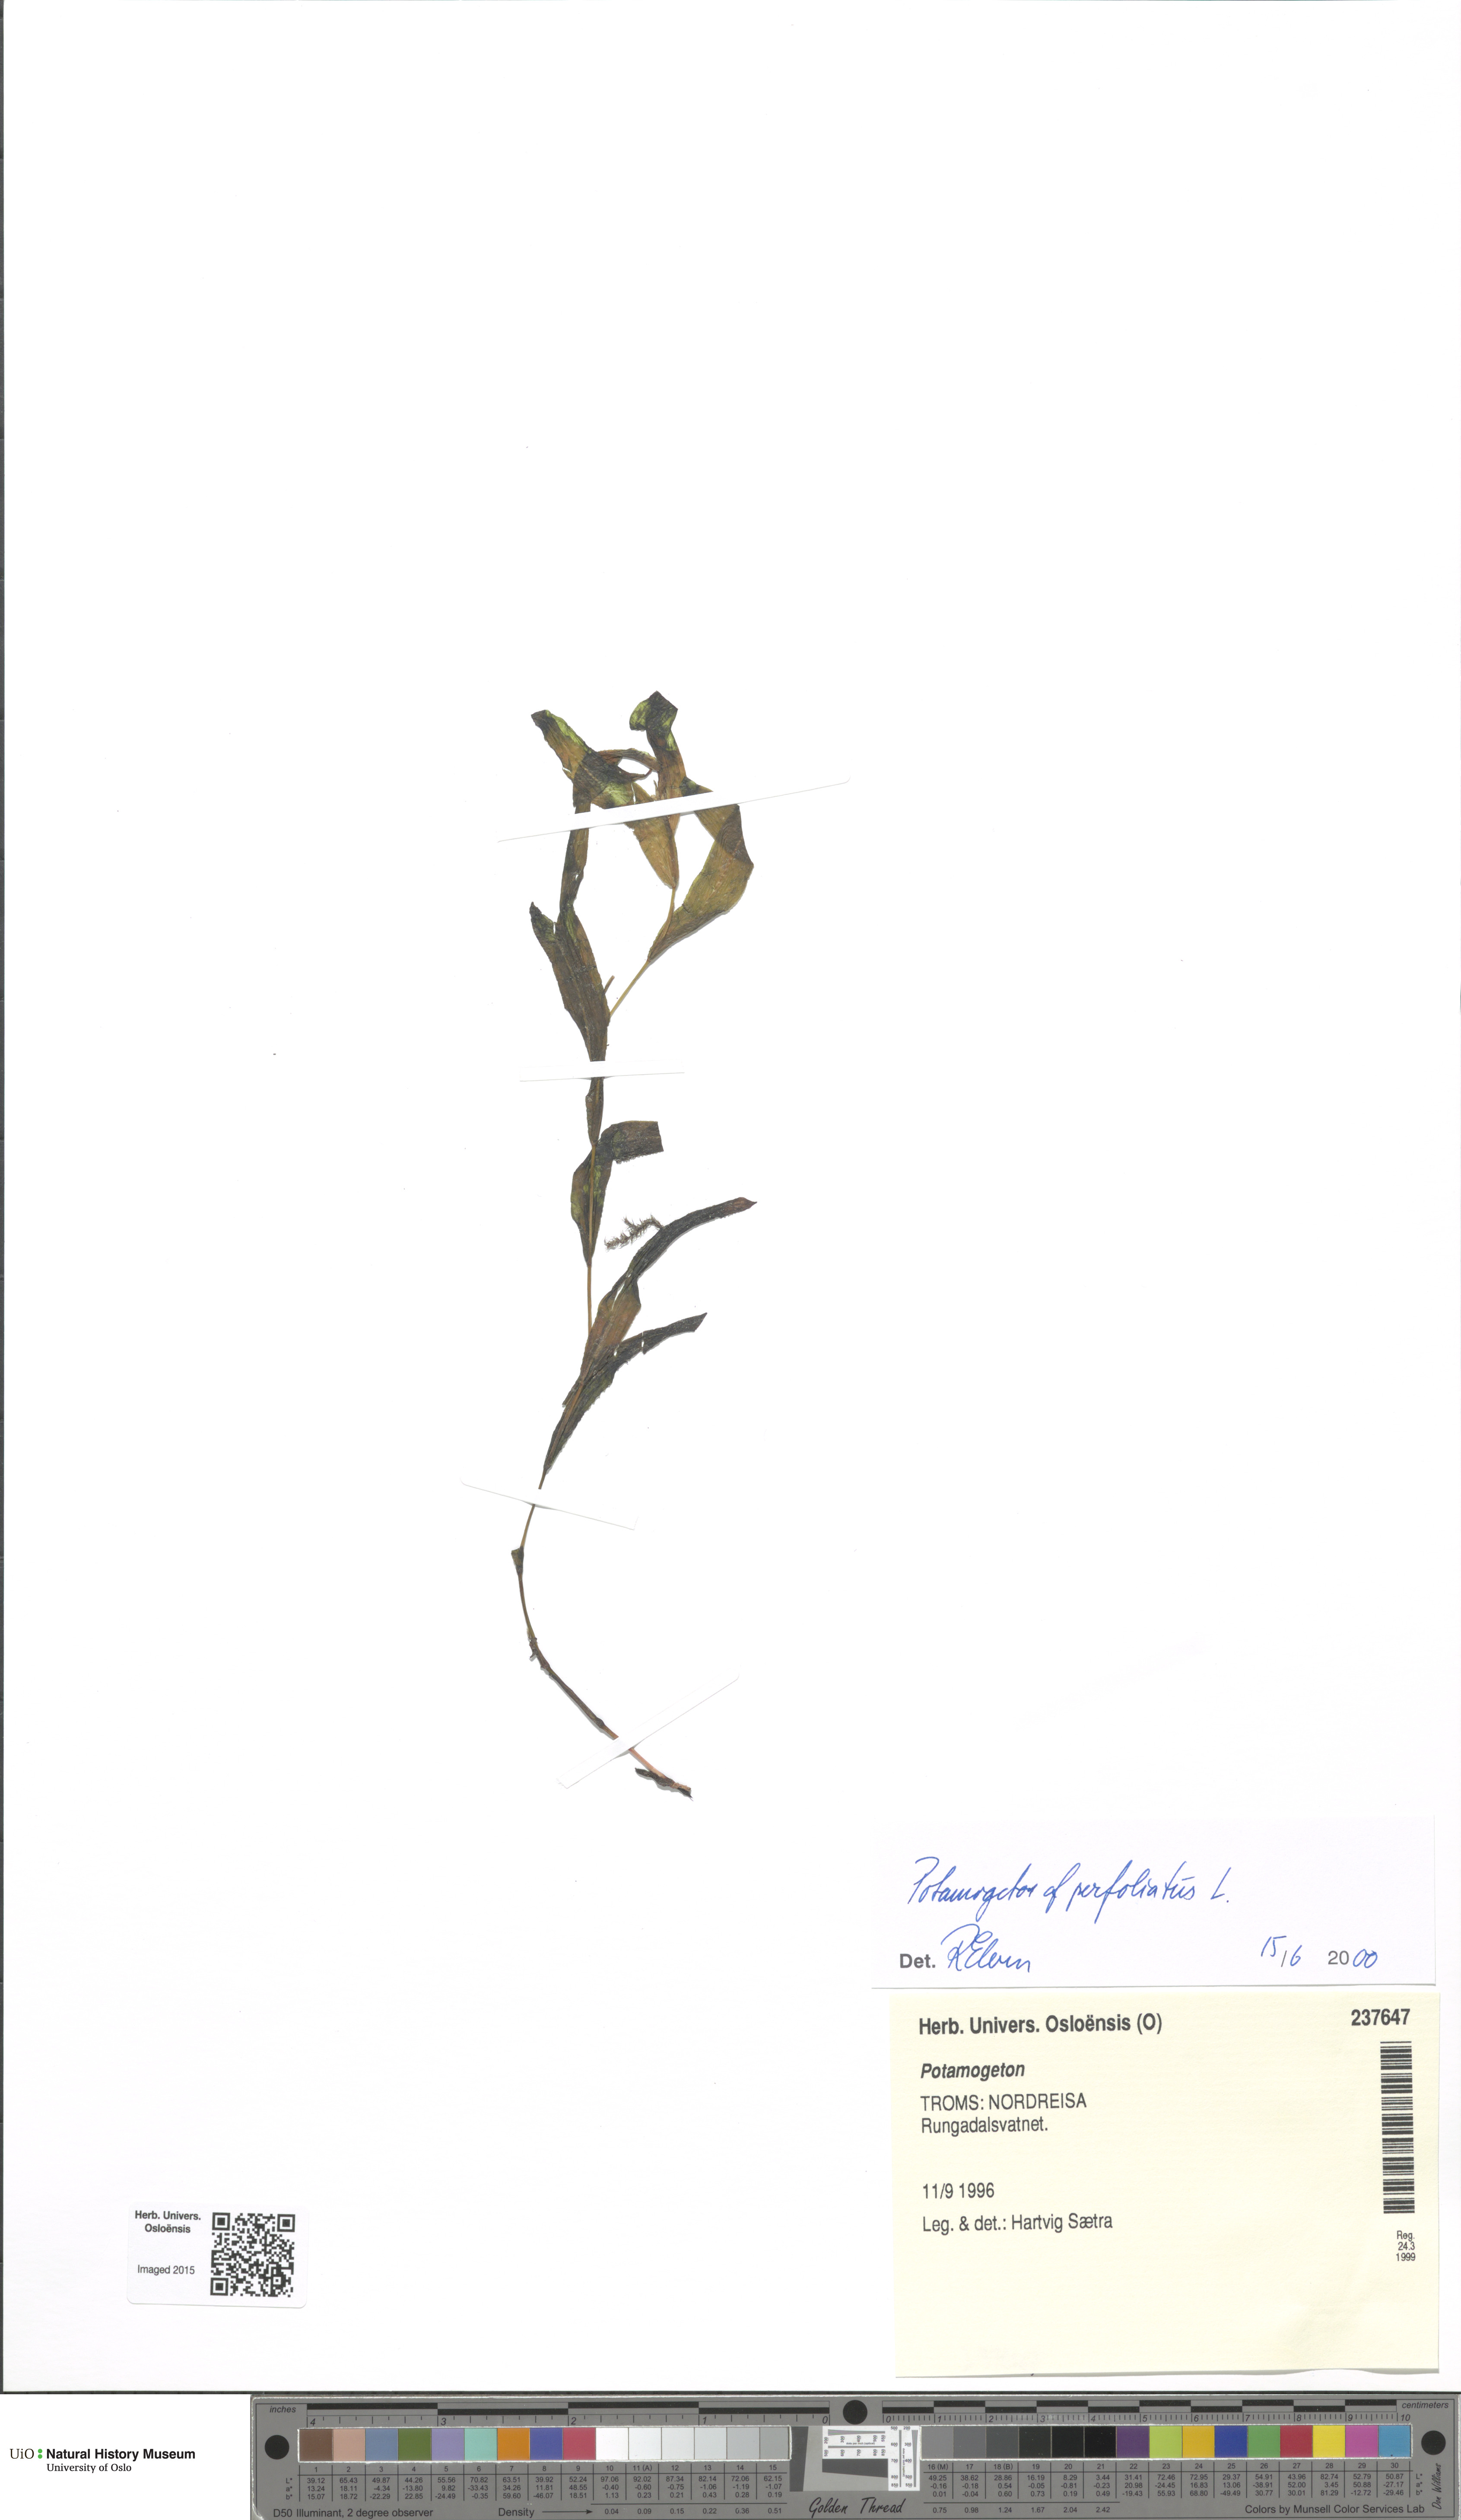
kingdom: Plantae
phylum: Tracheophyta
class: Liliopsida
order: Alismatales
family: Potamogetonaceae
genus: Potamogeton
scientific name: Potamogeton nericius
